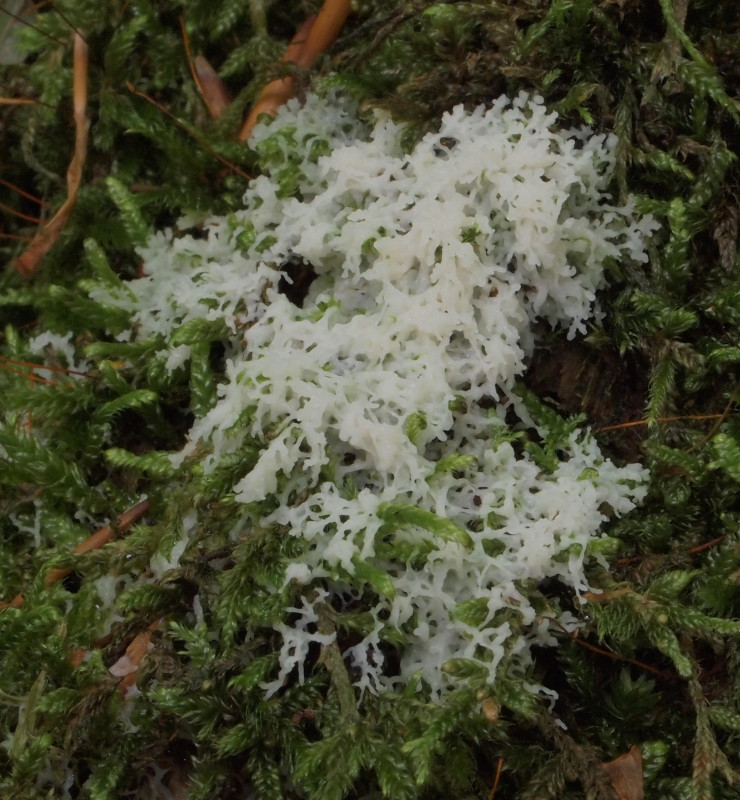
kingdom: Protozoa
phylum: Mycetozoa
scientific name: Mycetozoa
